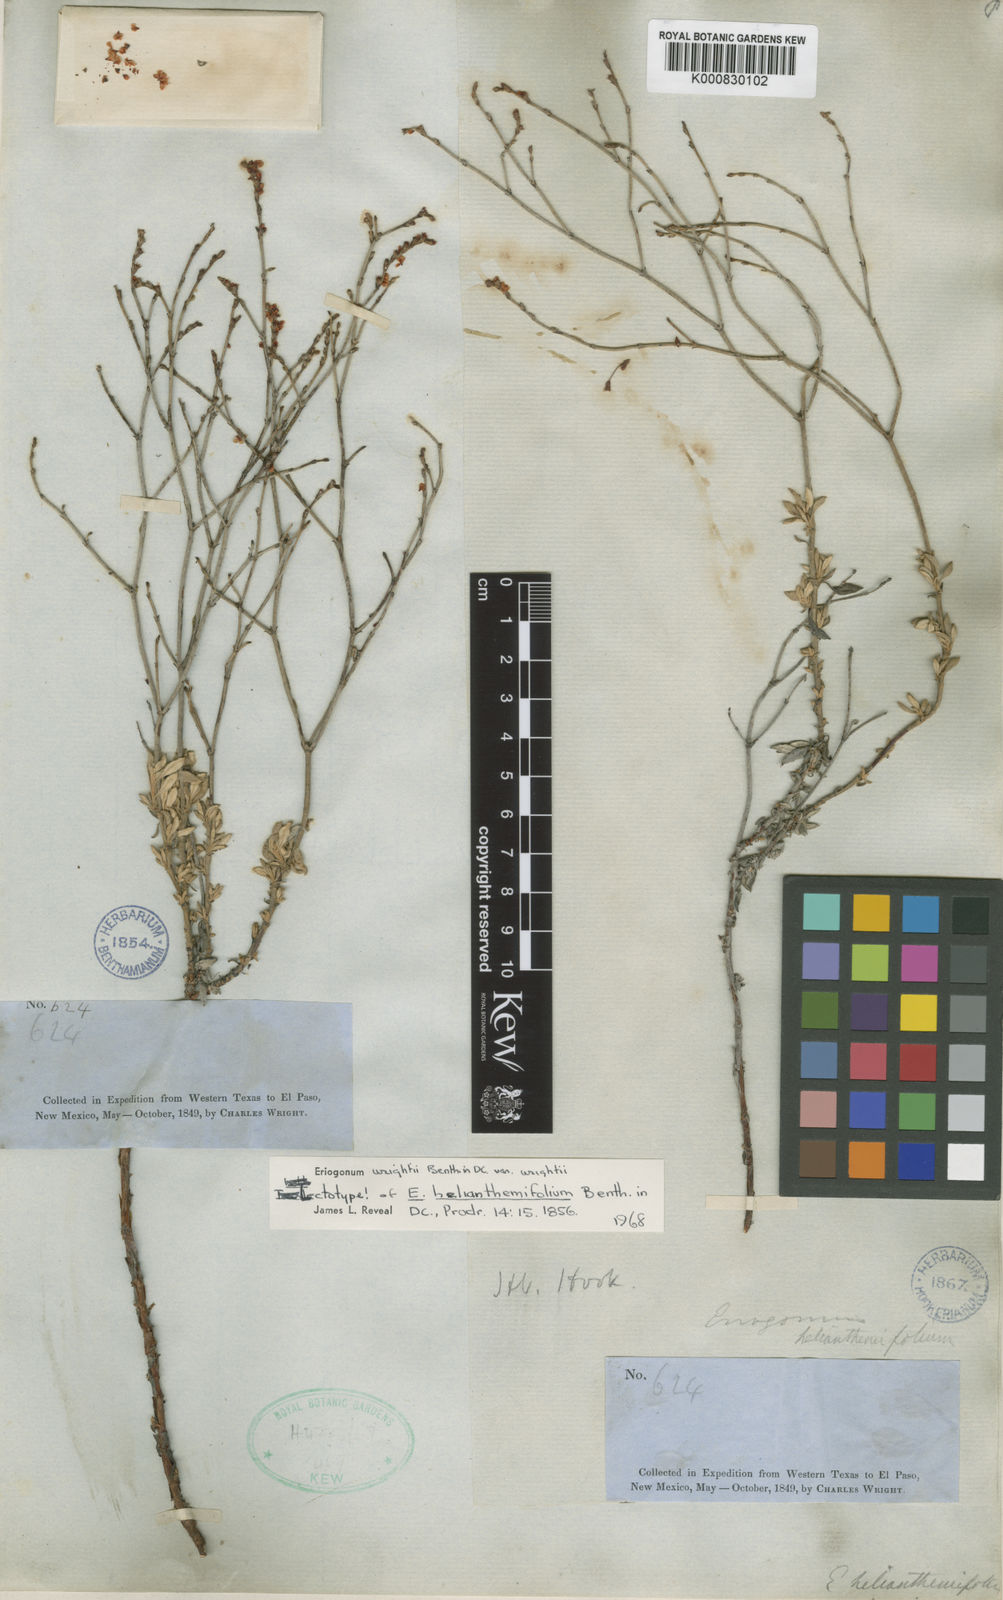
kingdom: Plantae
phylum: Tracheophyta
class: Magnoliopsida
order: Caryophyllales
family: Polygonaceae
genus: Eriogonum
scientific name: Eriogonum wrightii
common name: Bastard-sage
